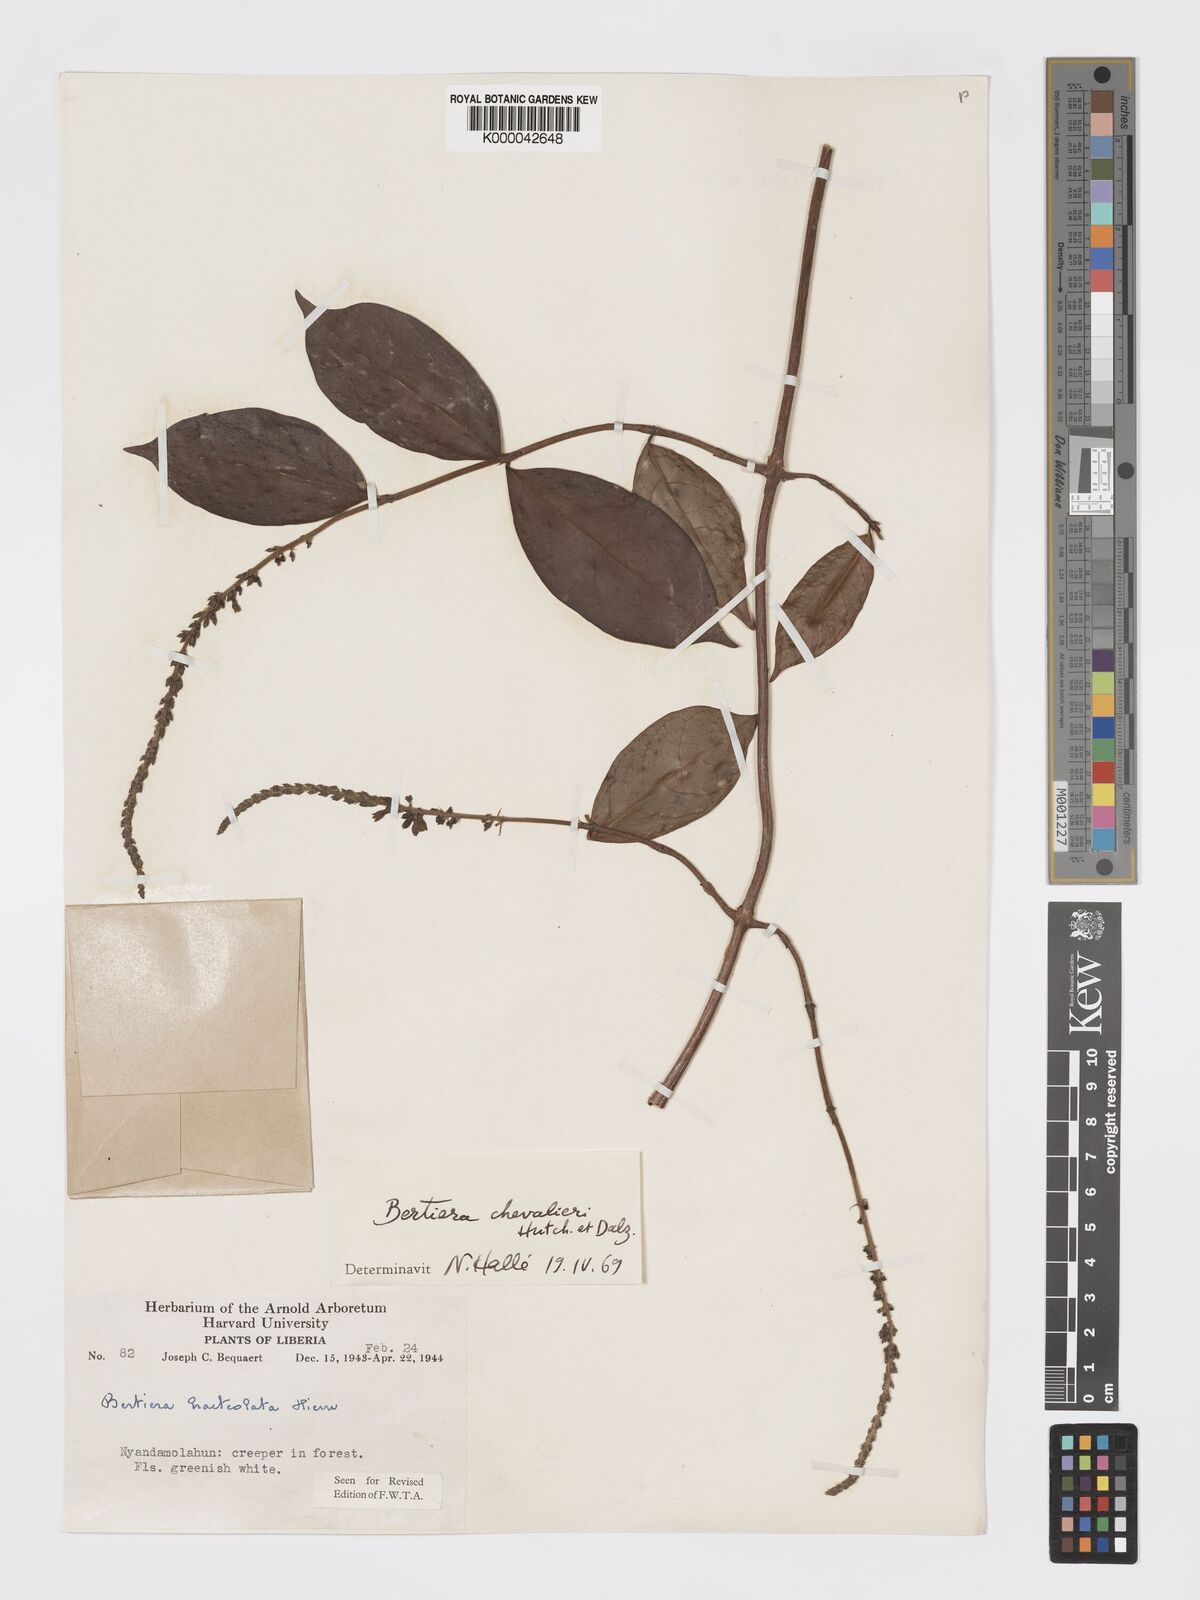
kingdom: Plantae
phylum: Tracheophyta
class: Magnoliopsida
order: Gentianales
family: Rubiaceae
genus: Bertiera
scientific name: Bertiera chevalieri
